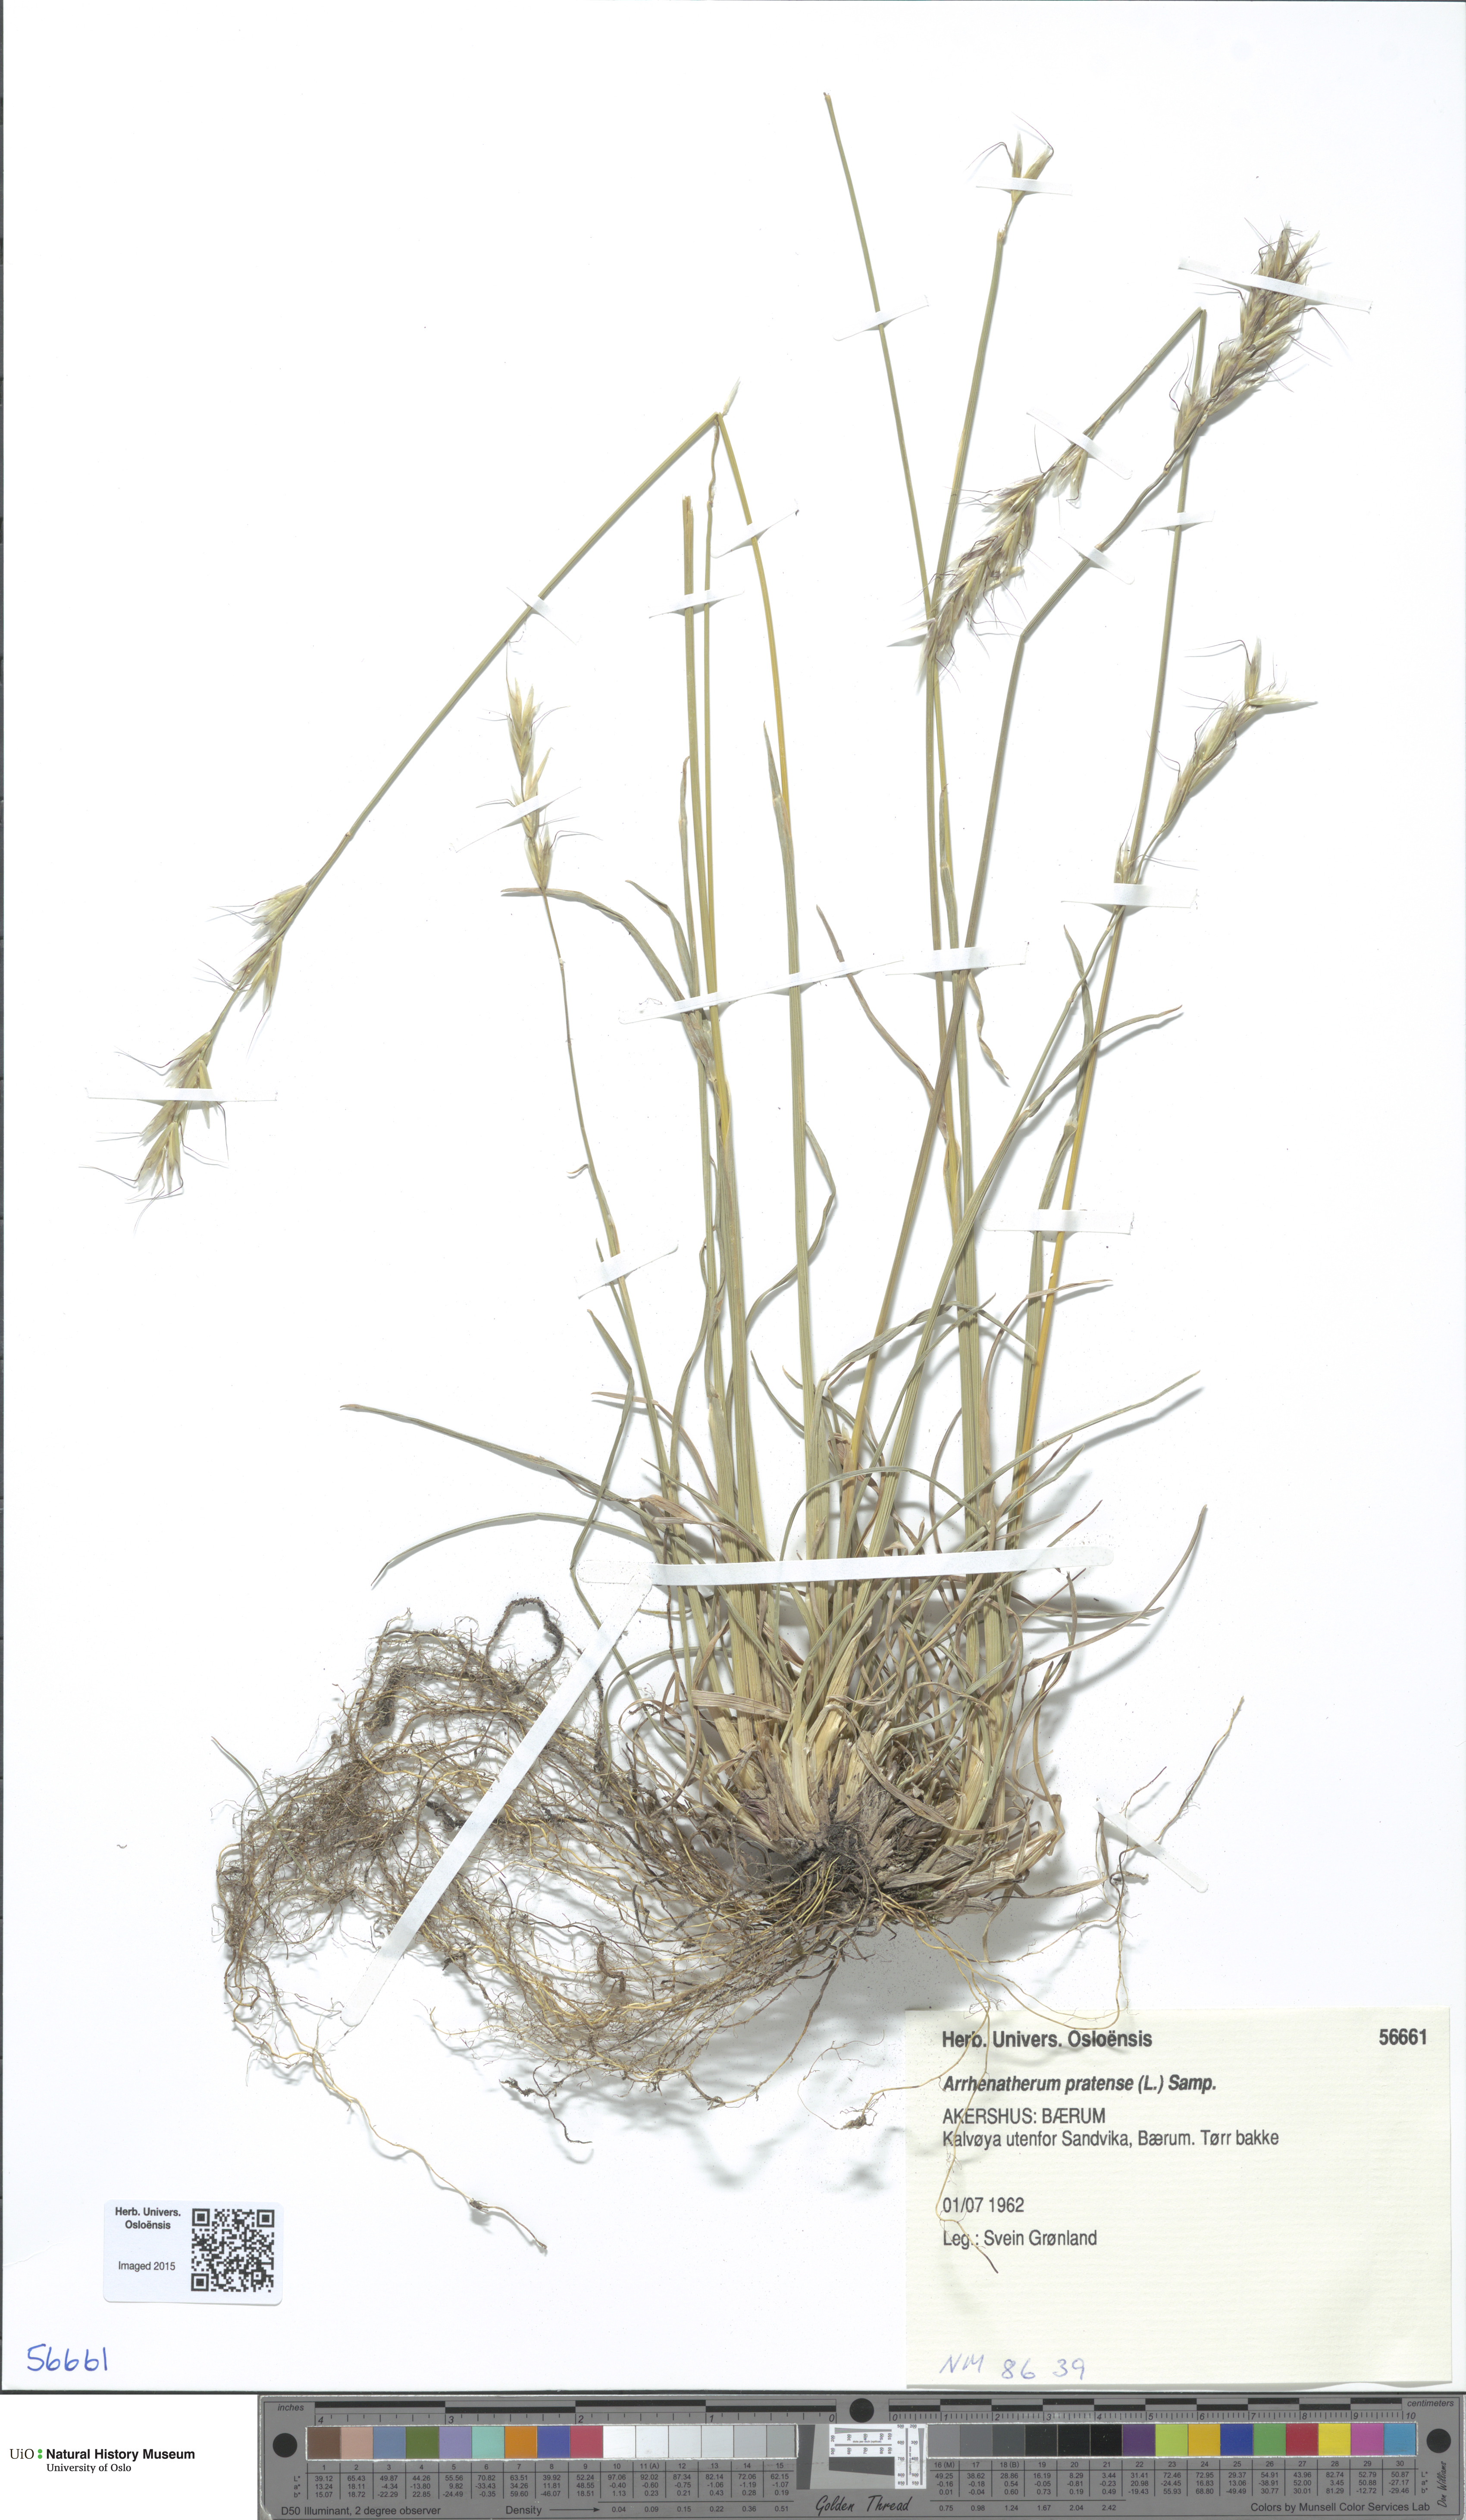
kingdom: Plantae
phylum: Tracheophyta
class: Liliopsida
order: Poales
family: Poaceae
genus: Helictochloa
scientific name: Helictochloa pratensis
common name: Meadow oat grass
